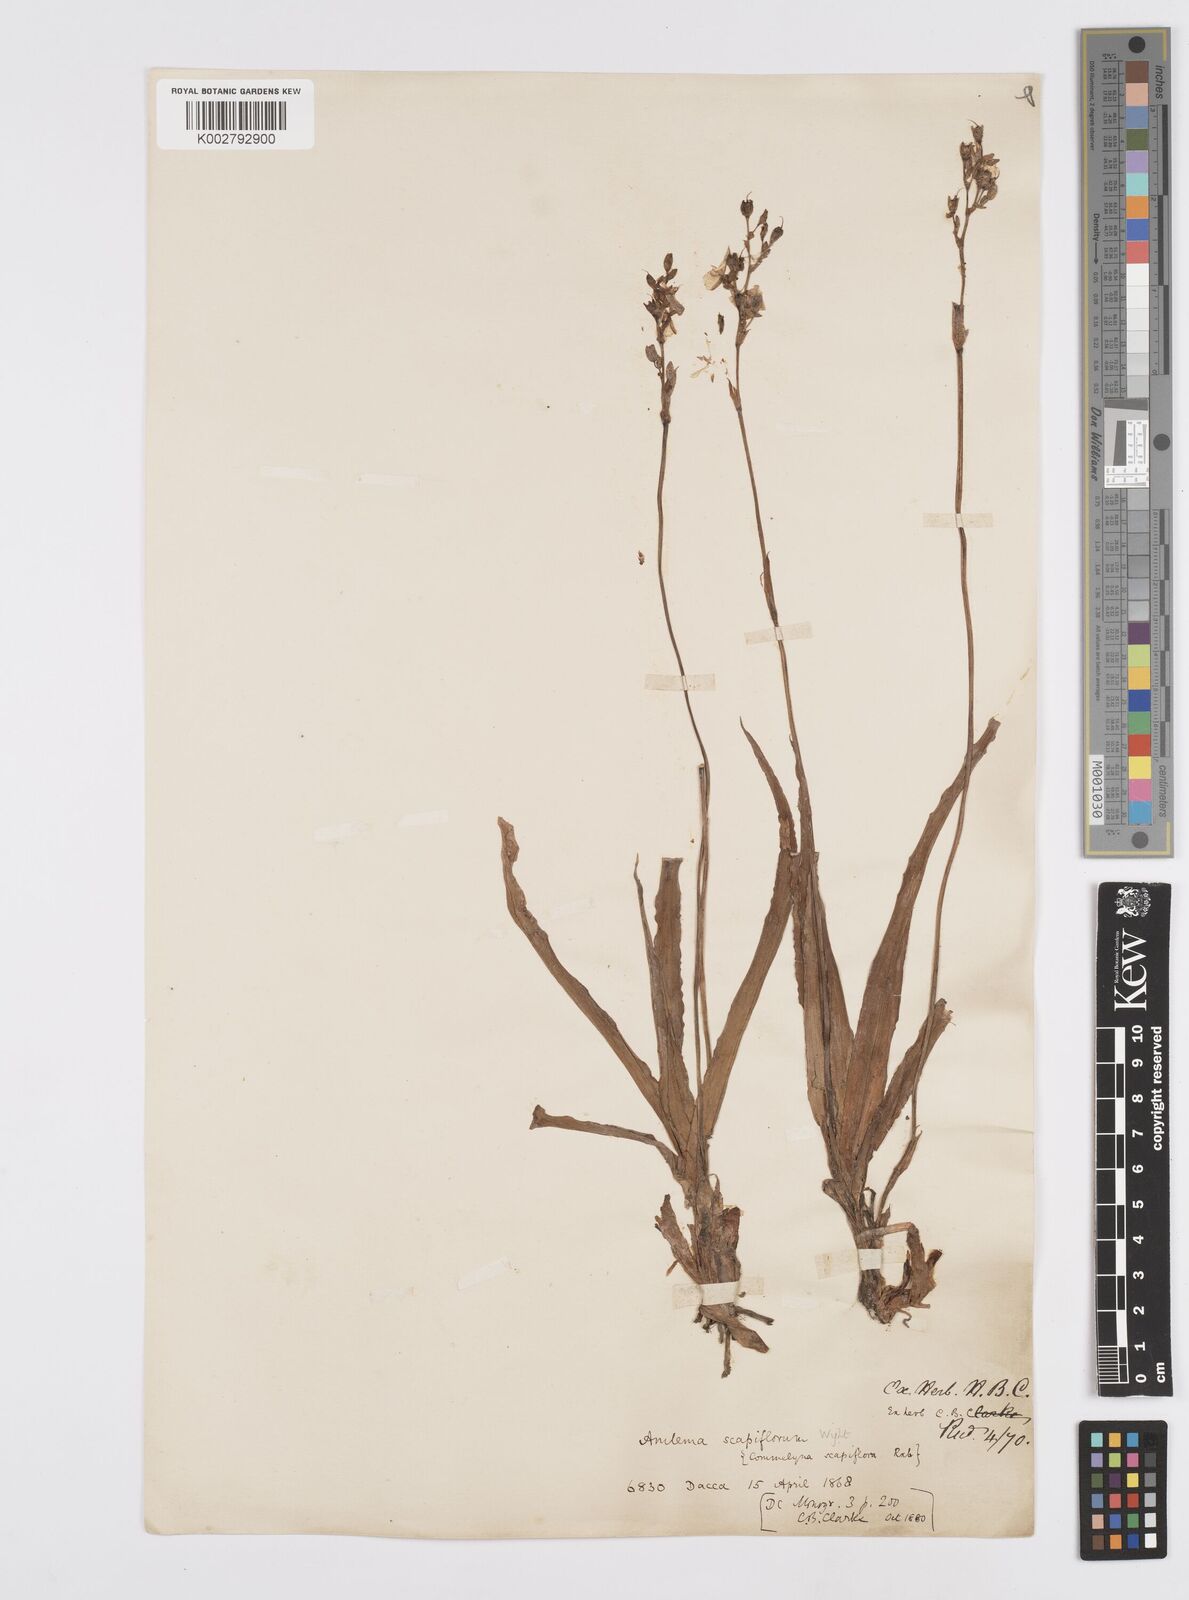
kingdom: Plantae
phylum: Tracheophyta
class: Liliopsida
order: Commelinales
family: Commelinaceae
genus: Murdannia
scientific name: Murdannia edulis
